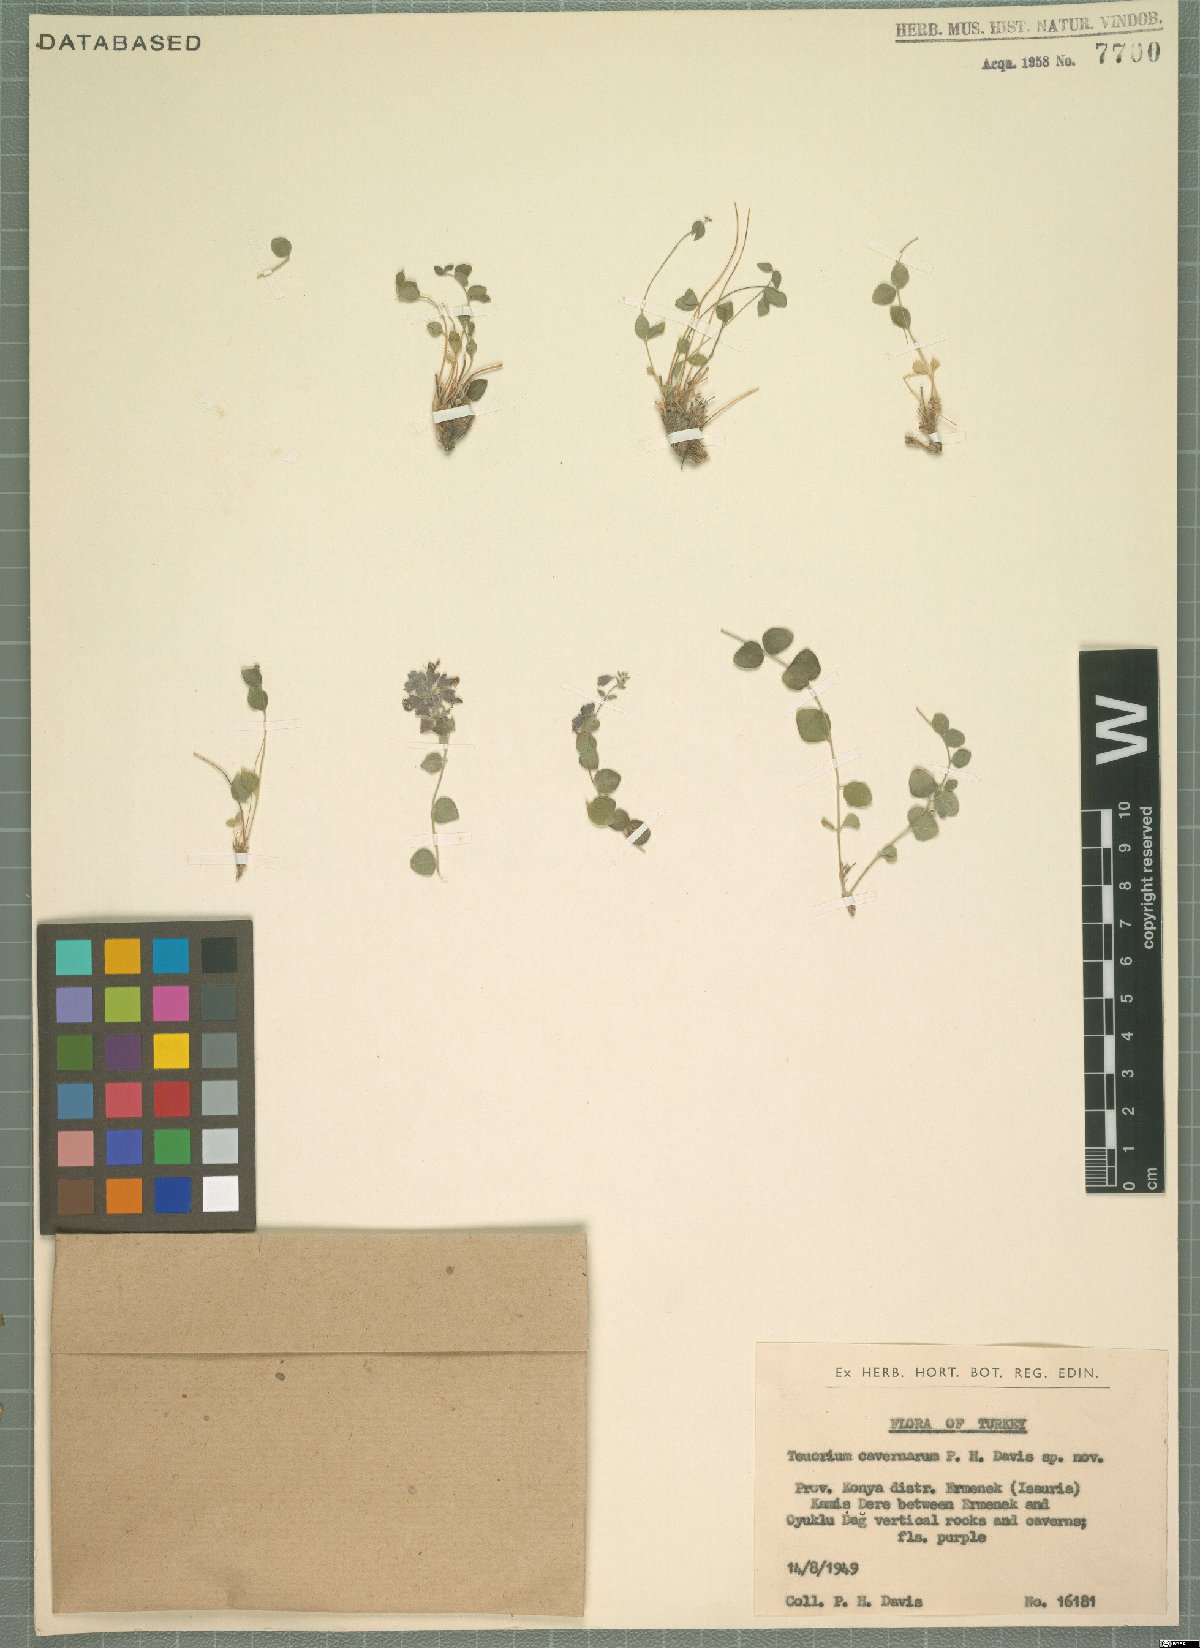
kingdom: Plantae
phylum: Tracheophyta
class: Magnoliopsida
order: Lamiales
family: Lamiaceae
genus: Teucrium
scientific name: Teucrium cavernarum
